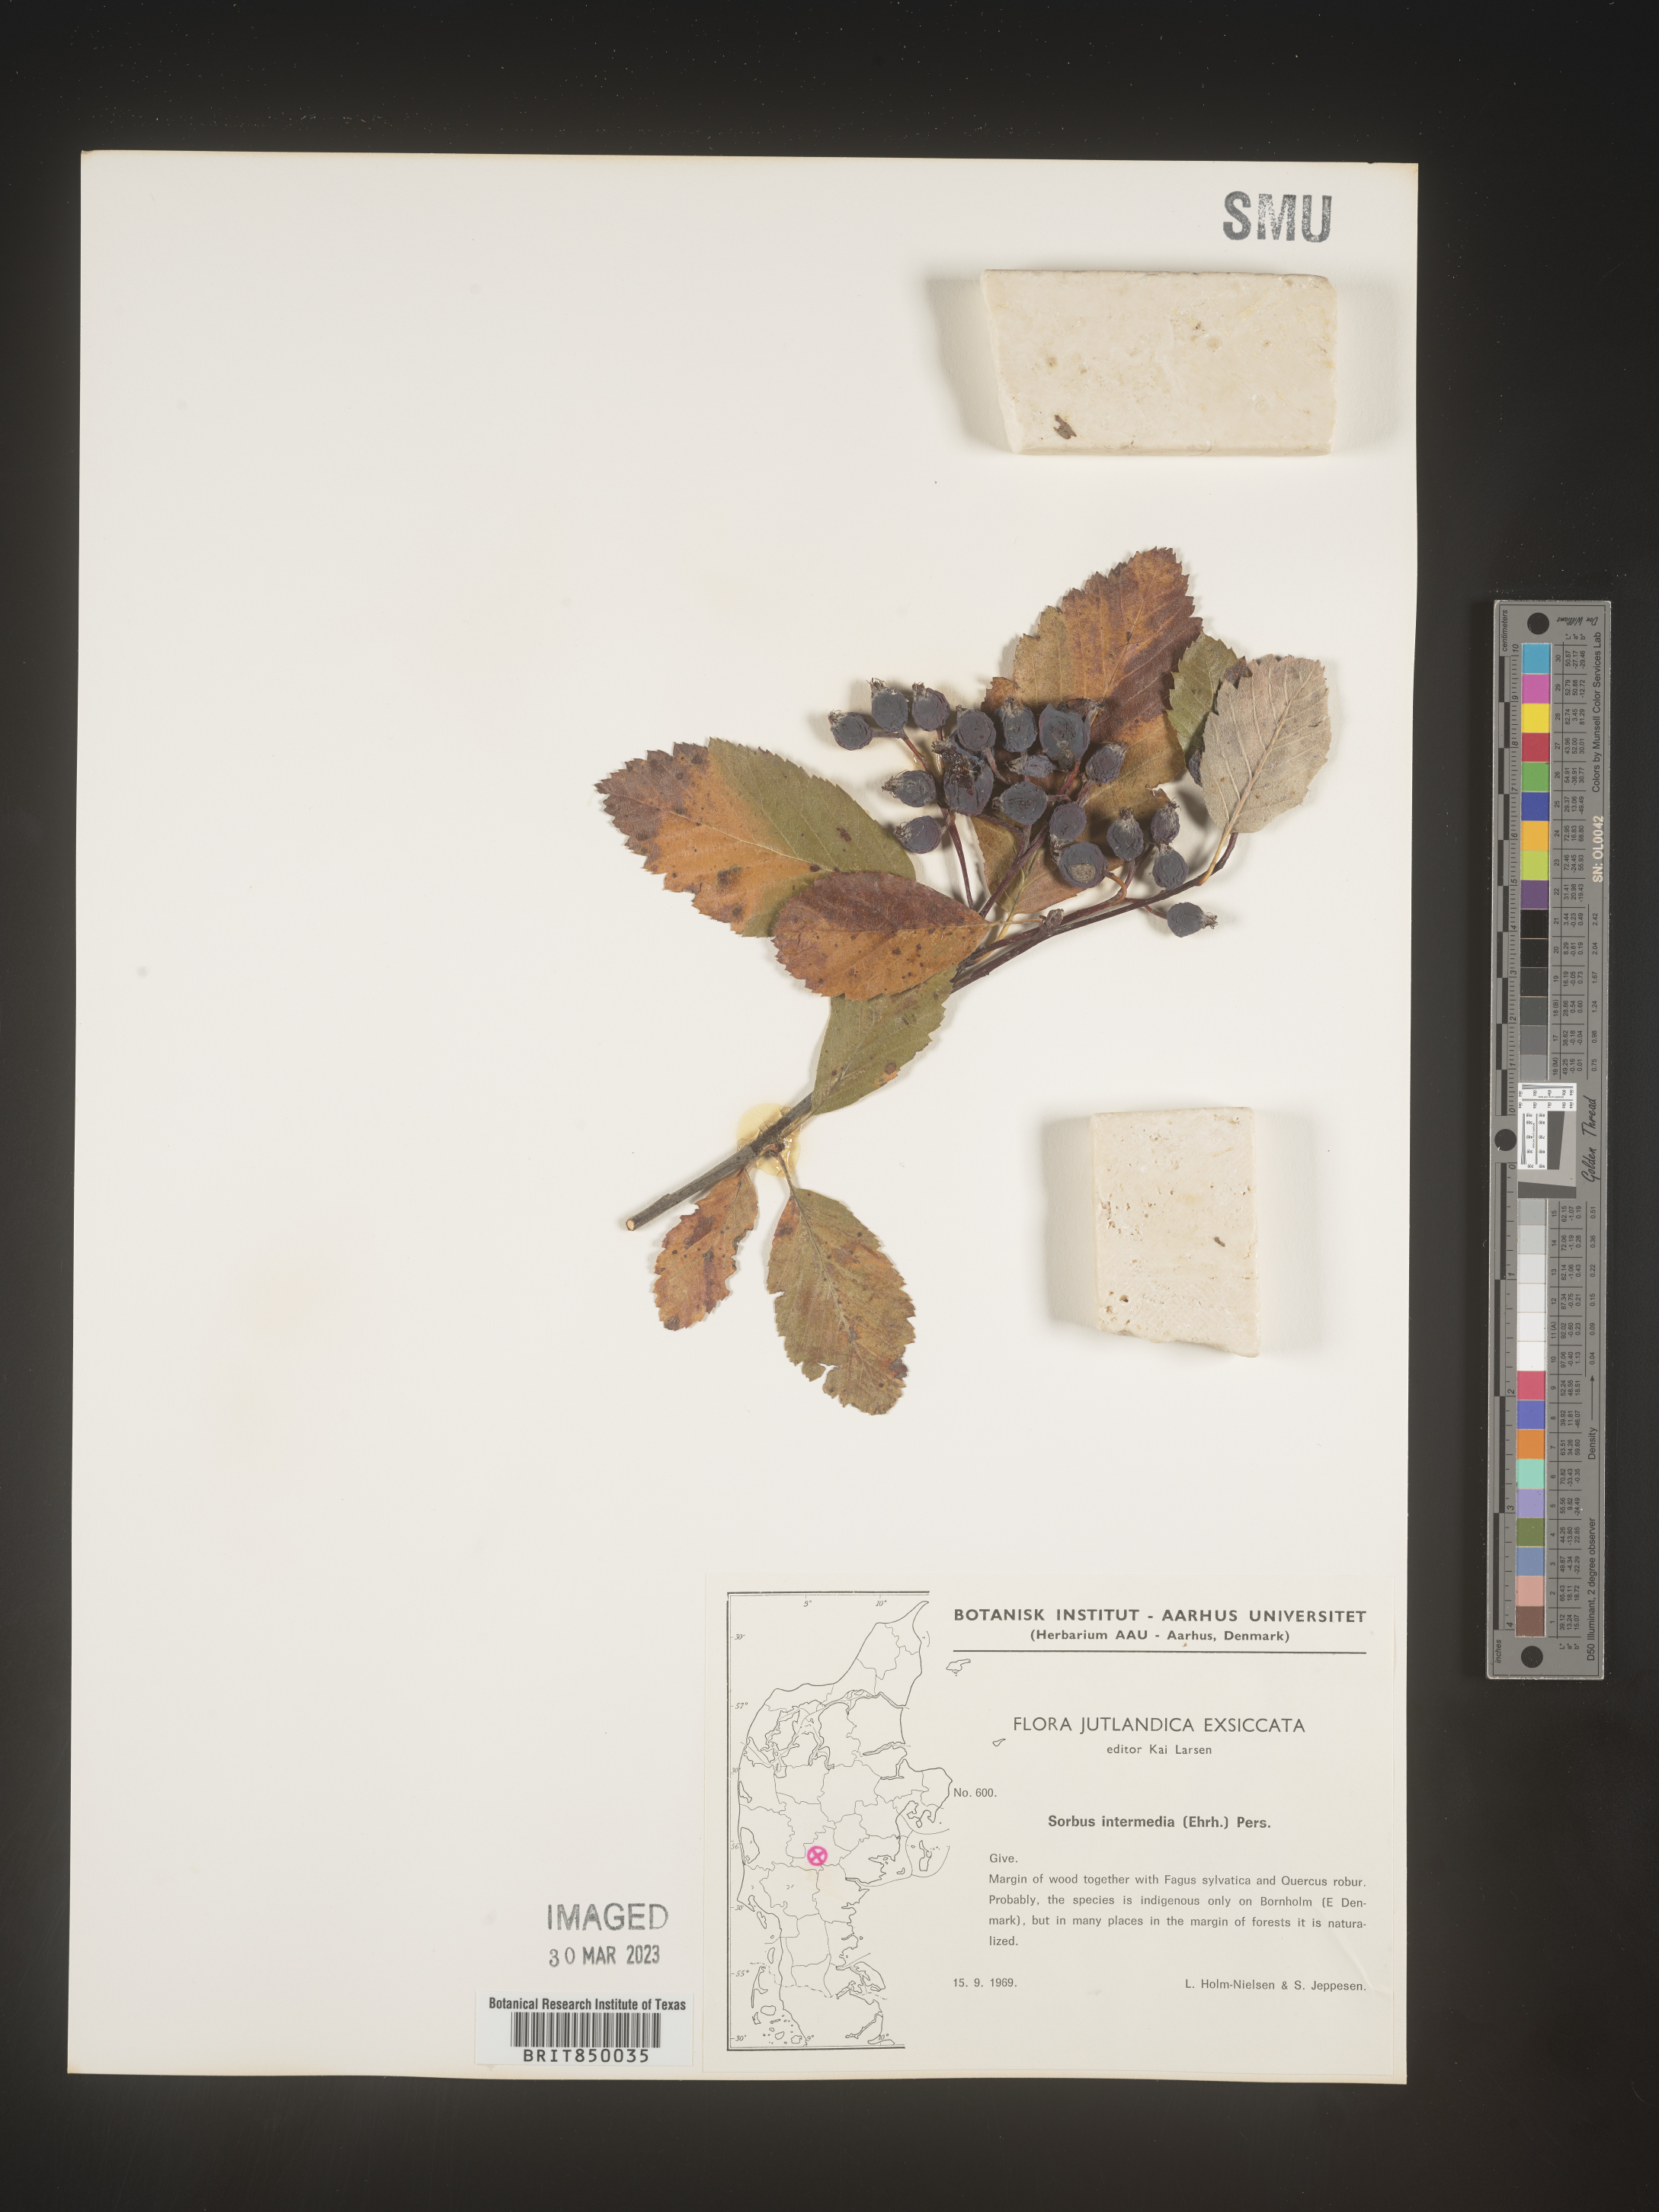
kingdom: Plantae
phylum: Tracheophyta
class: Magnoliopsida
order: Rosales
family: Rosaceae
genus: Sorbus
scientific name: Sorbus
